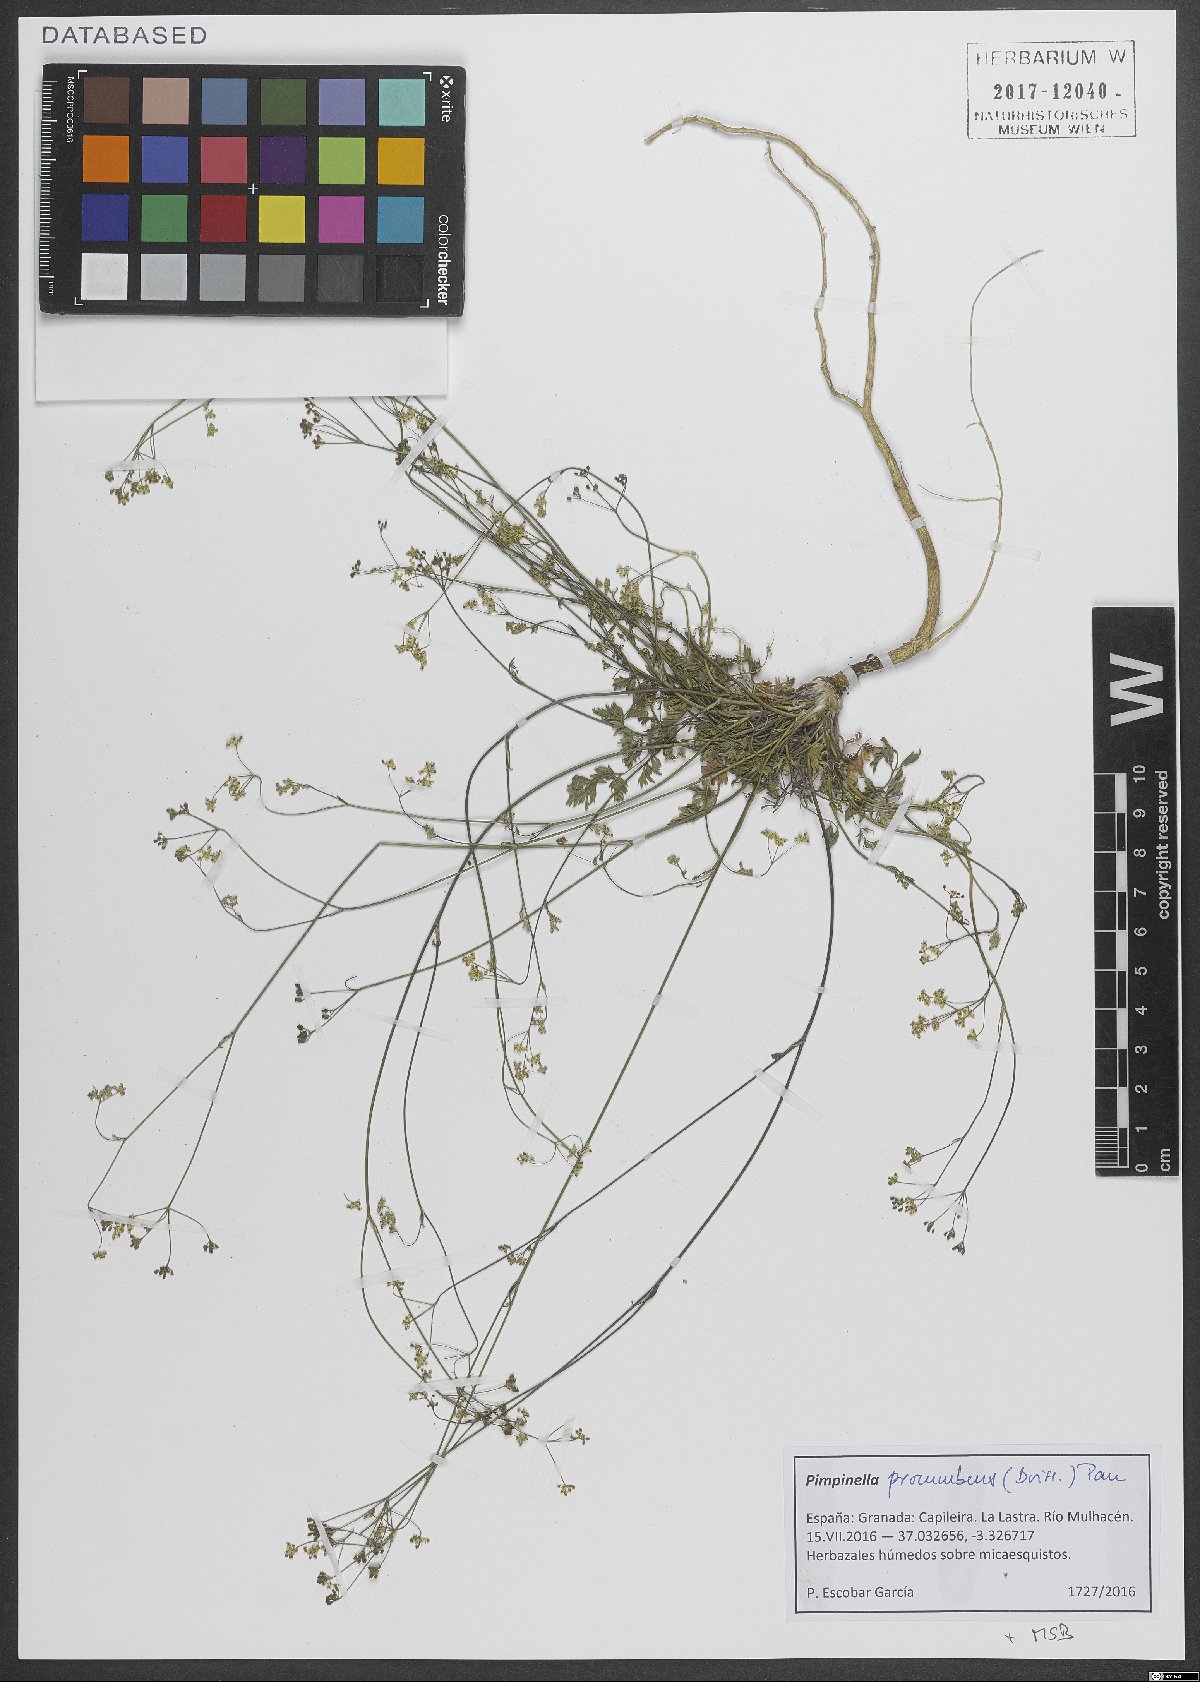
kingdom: Plantae
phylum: Tracheophyta
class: Magnoliopsida
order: Apiales
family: Apiaceae
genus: Pimpinella
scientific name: Pimpinella procumbens
